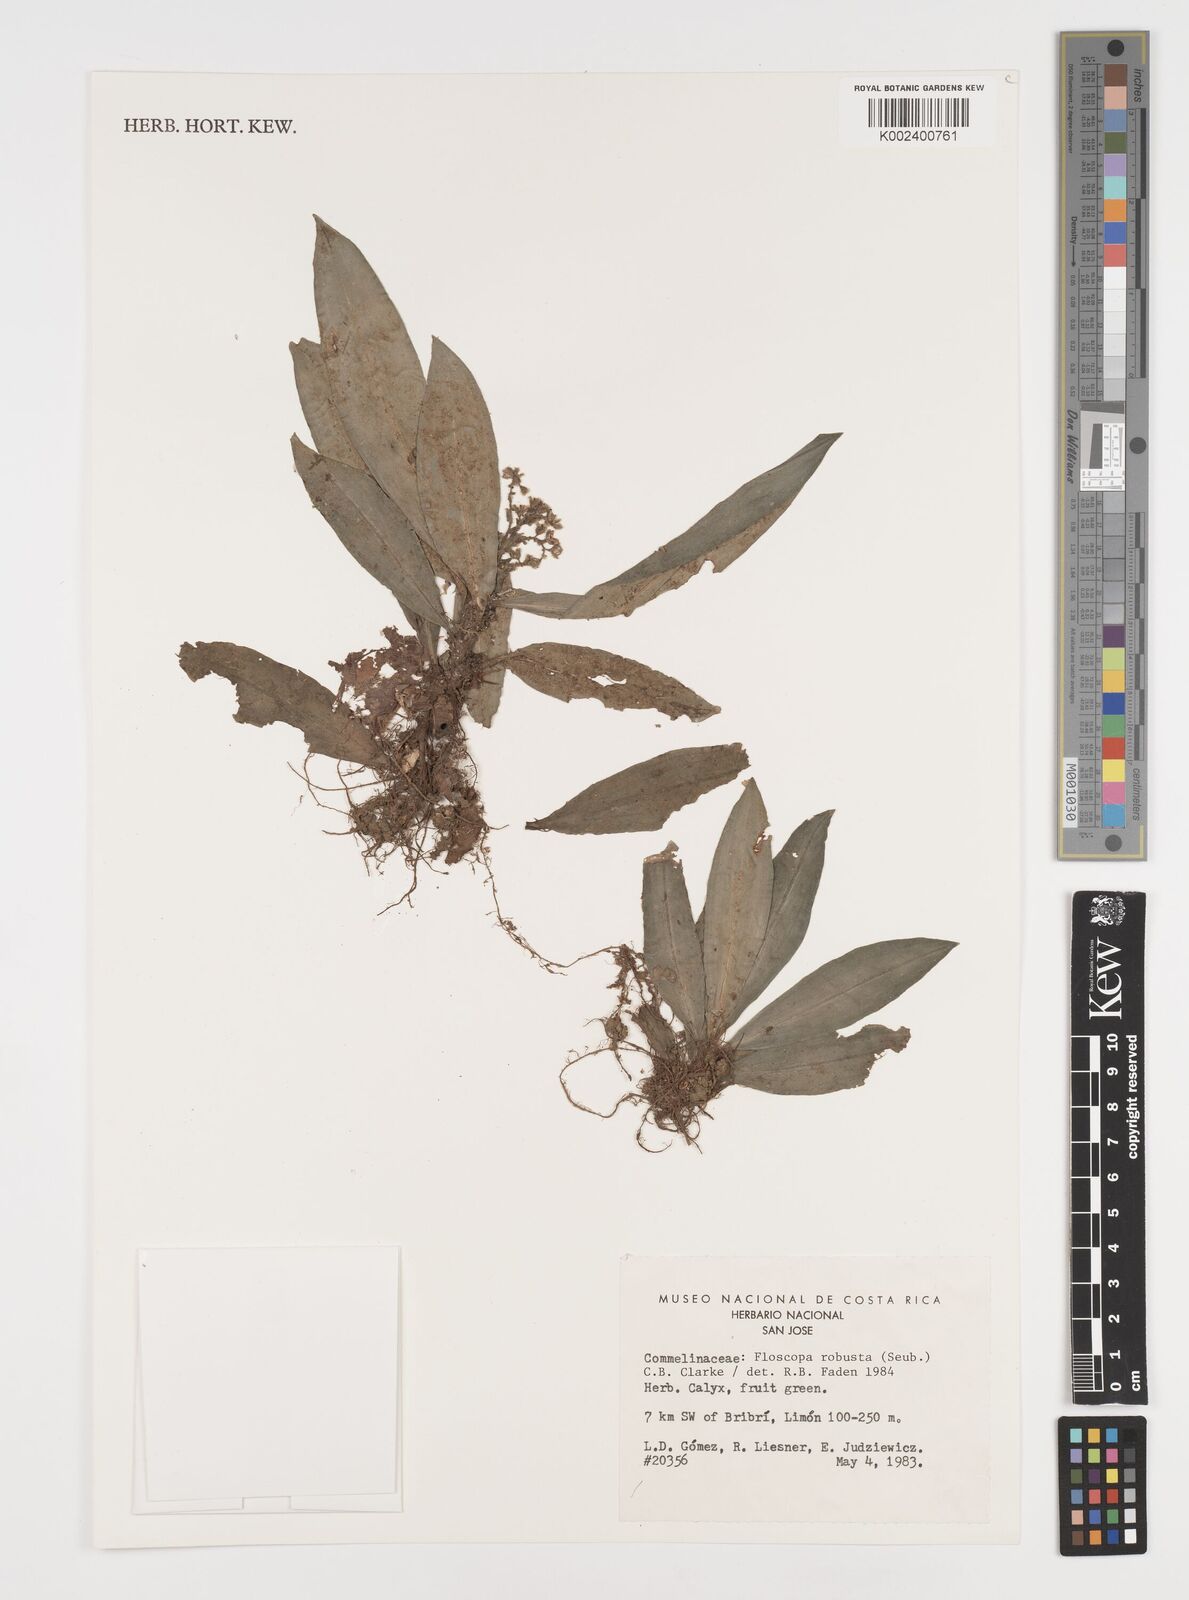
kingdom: Plantae
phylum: Tracheophyta
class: Liliopsida
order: Commelinales
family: Commelinaceae
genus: Floscopa
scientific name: Floscopa robusta
